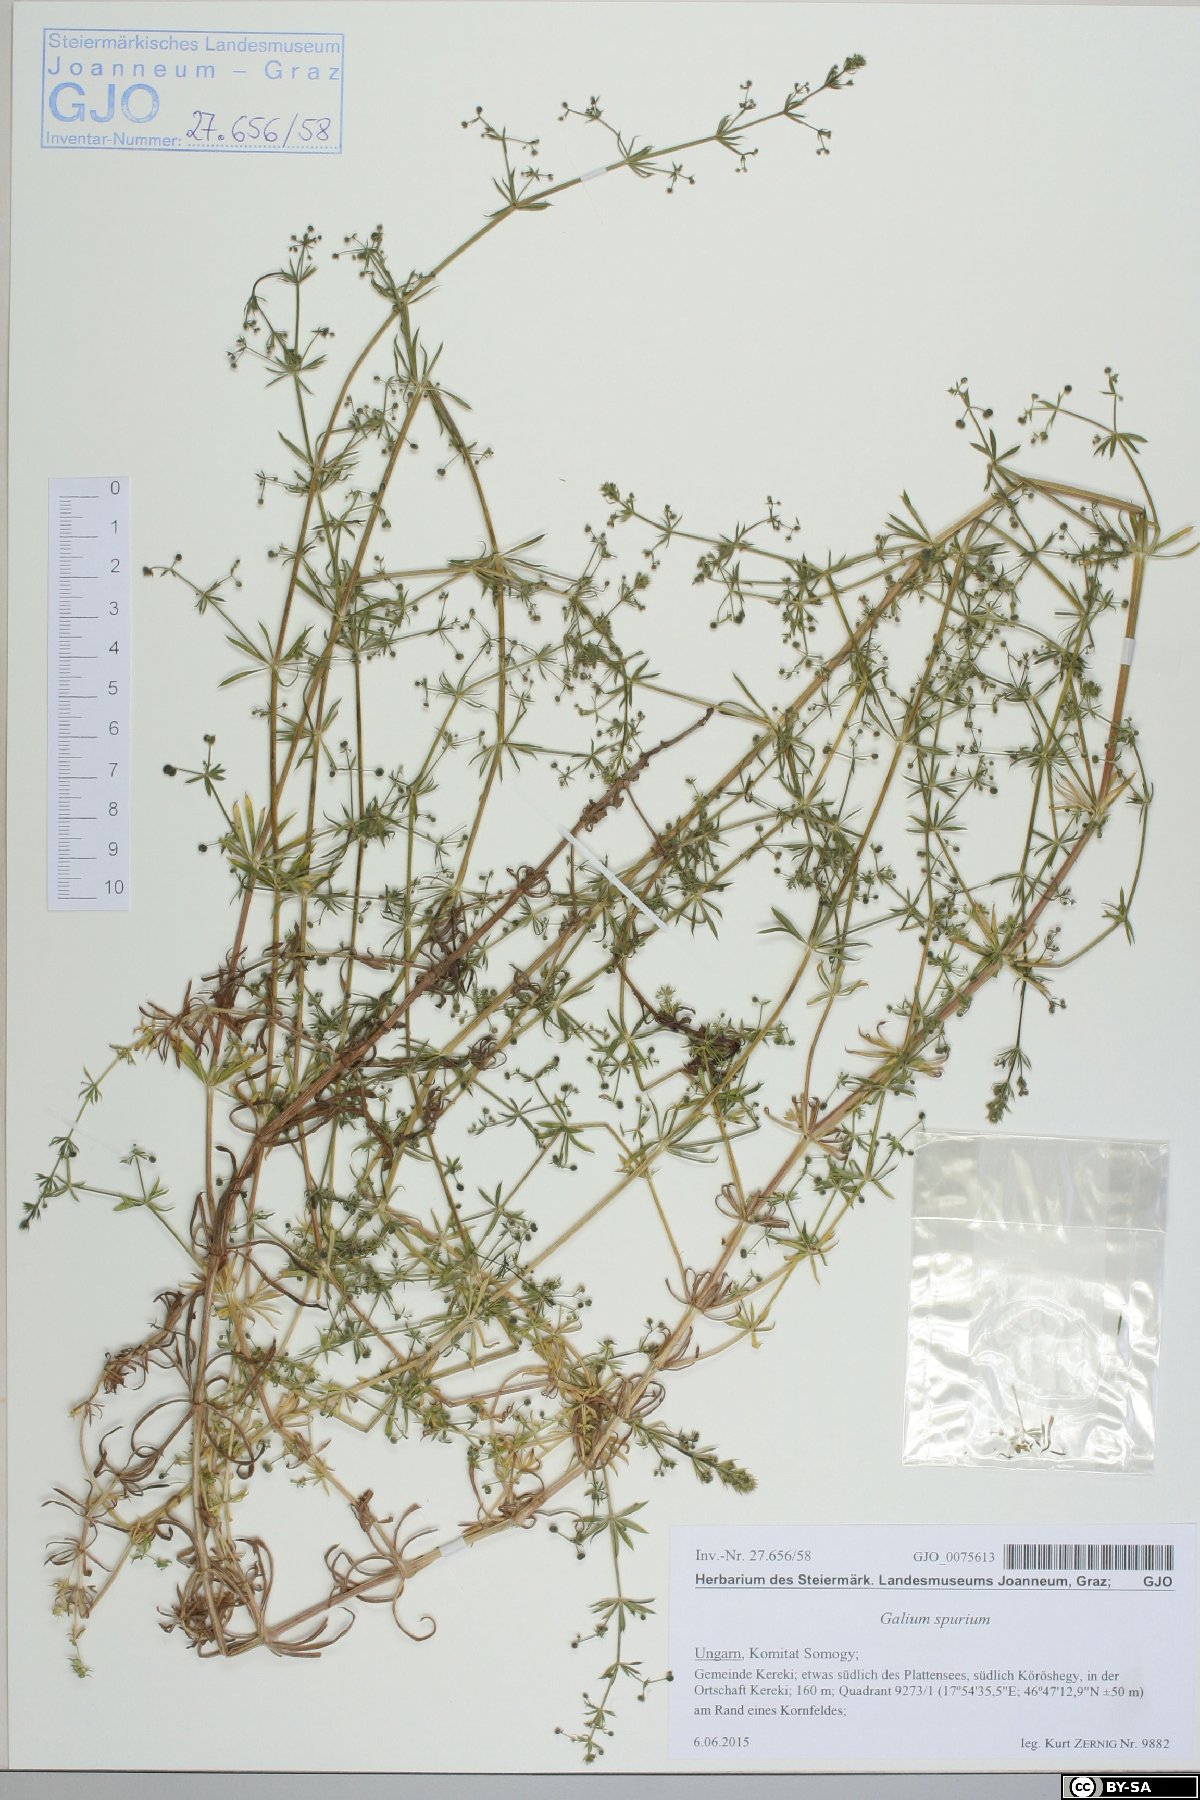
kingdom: Plantae
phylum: Tracheophyta
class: Magnoliopsida
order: Gentianales
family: Rubiaceae
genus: Galium
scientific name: Galium spurium
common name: False cleavers
